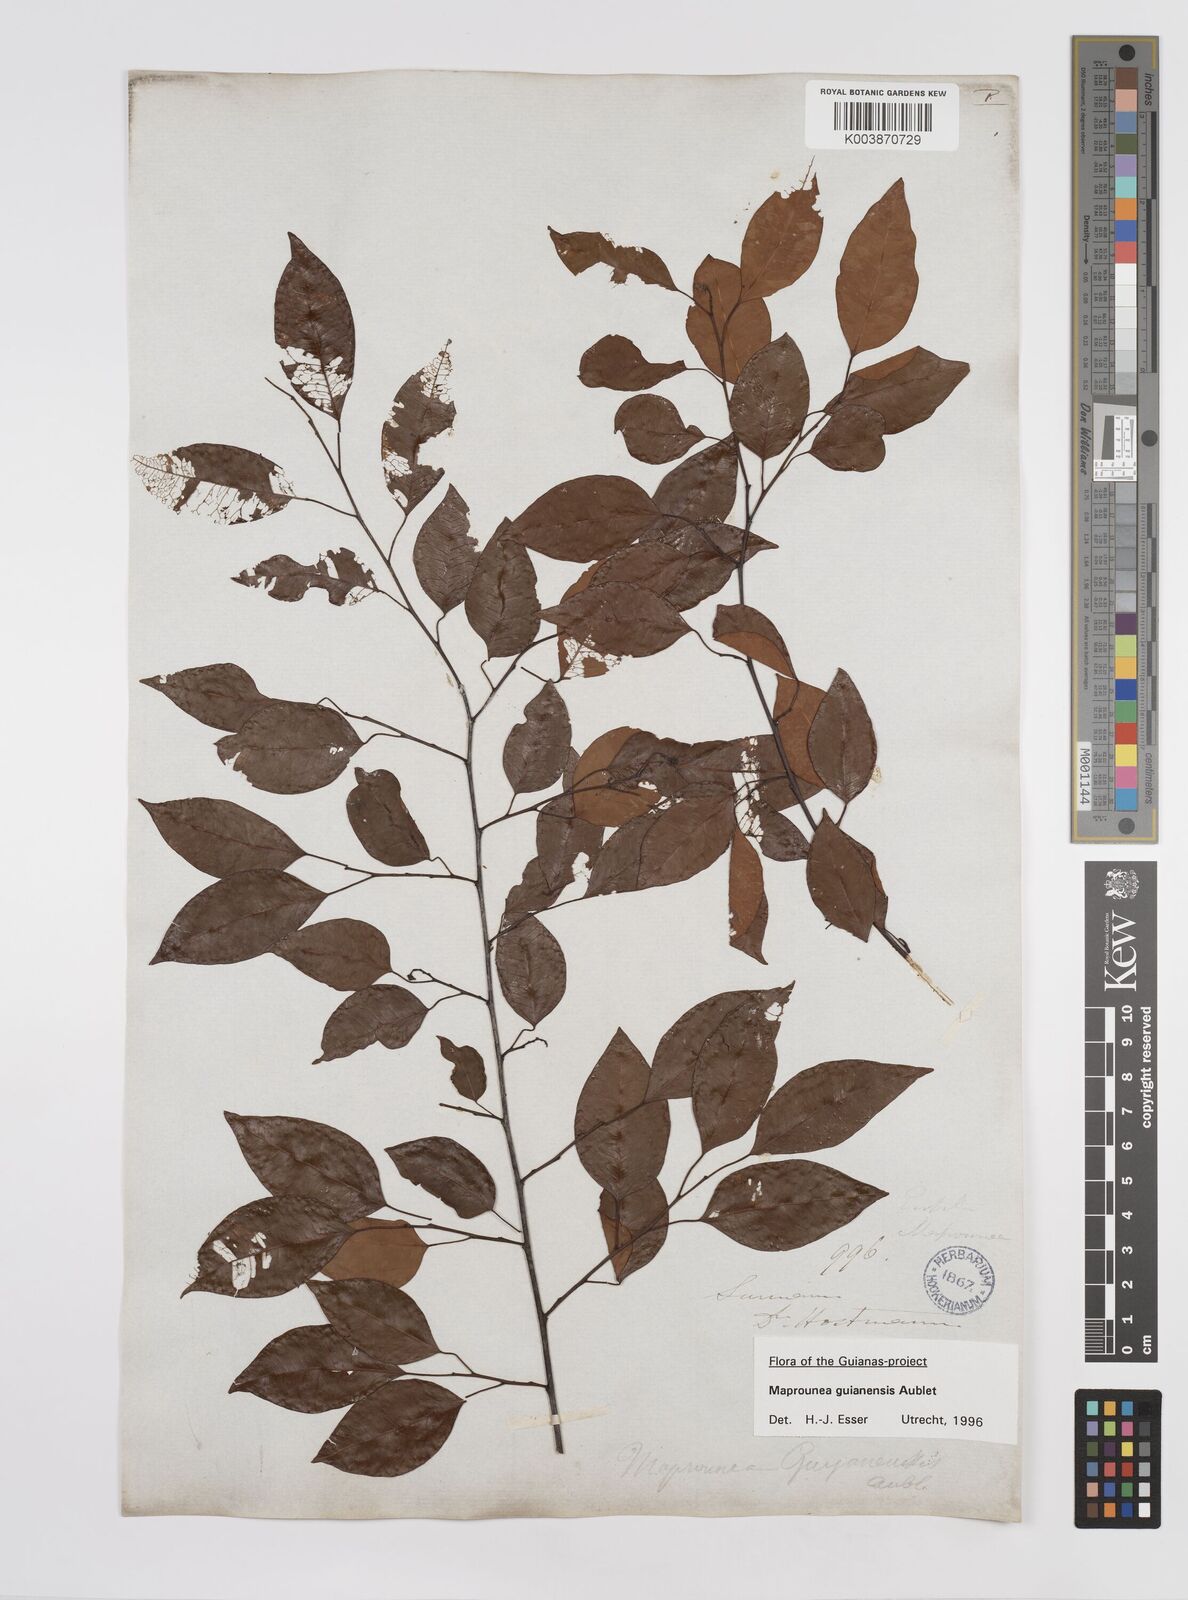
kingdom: Plantae
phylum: Tracheophyta
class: Magnoliopsida
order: Malpighiales
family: Euphorbiaceae
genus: Maprounea
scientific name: Maprounea guianensis
